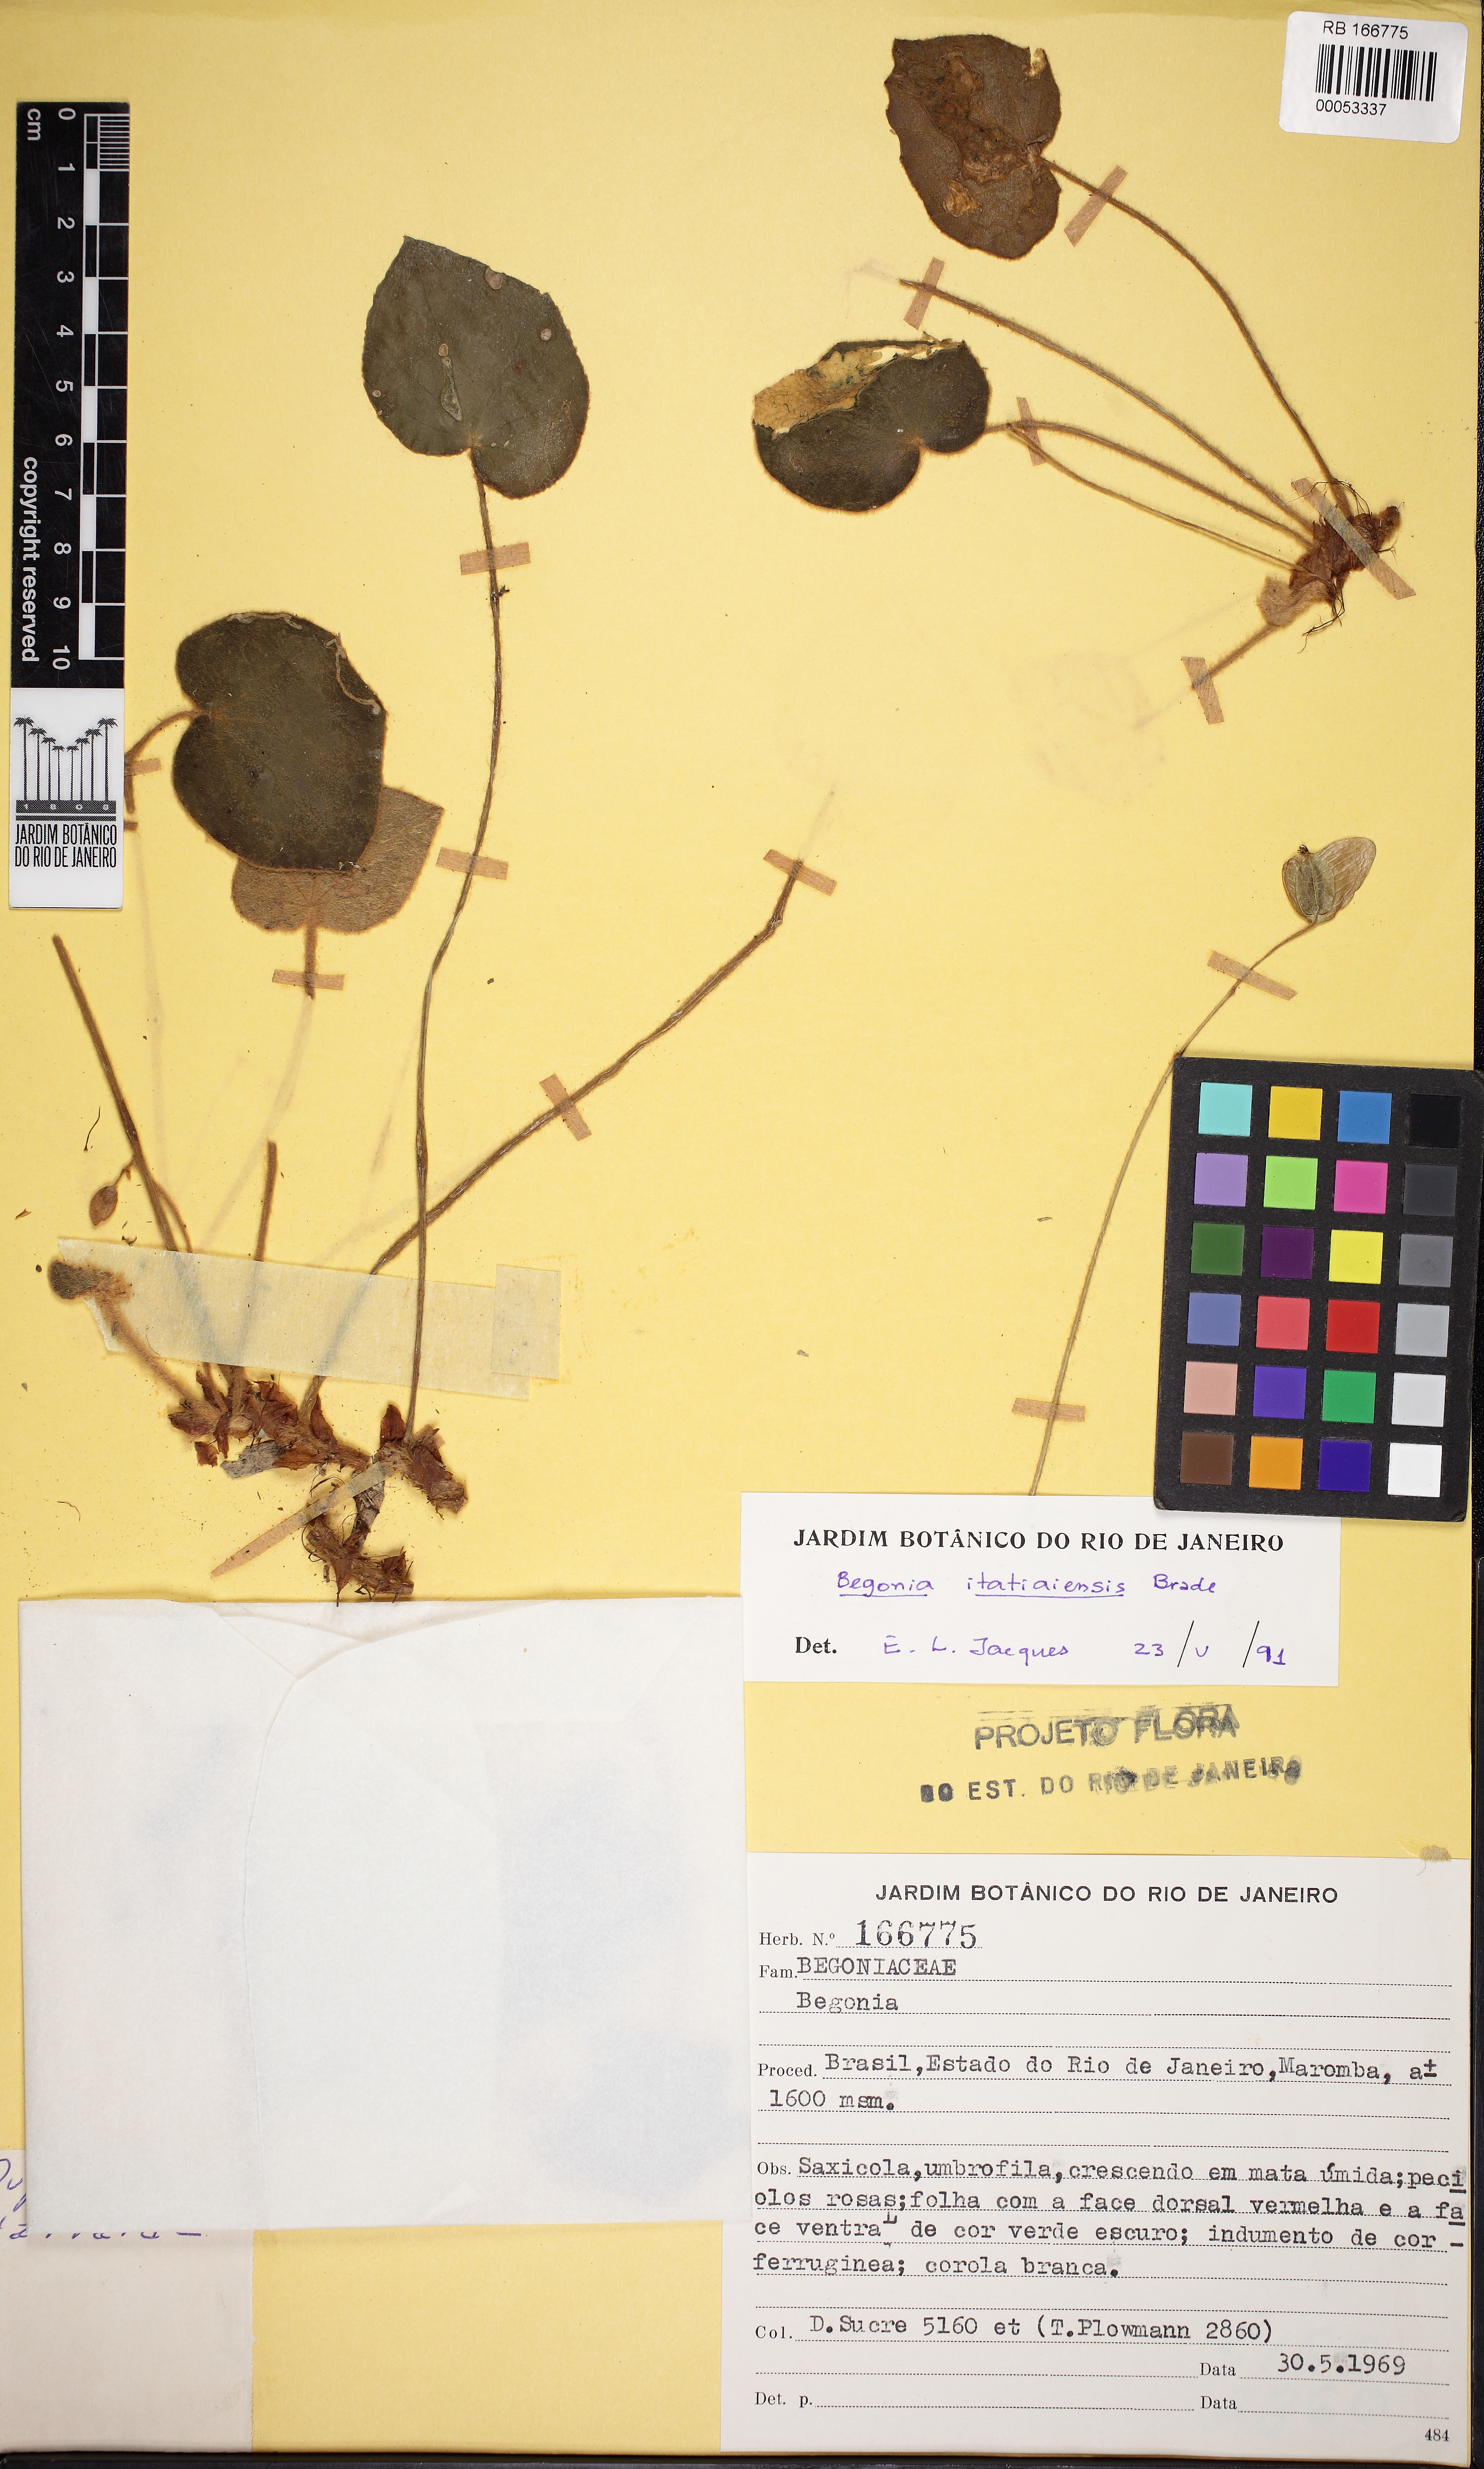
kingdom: Plantae
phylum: Tracheophyta
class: Magnoliopsida
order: Cucurbitales
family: Begoniaceae
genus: Begonia
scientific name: Begonia itatiaiensis
